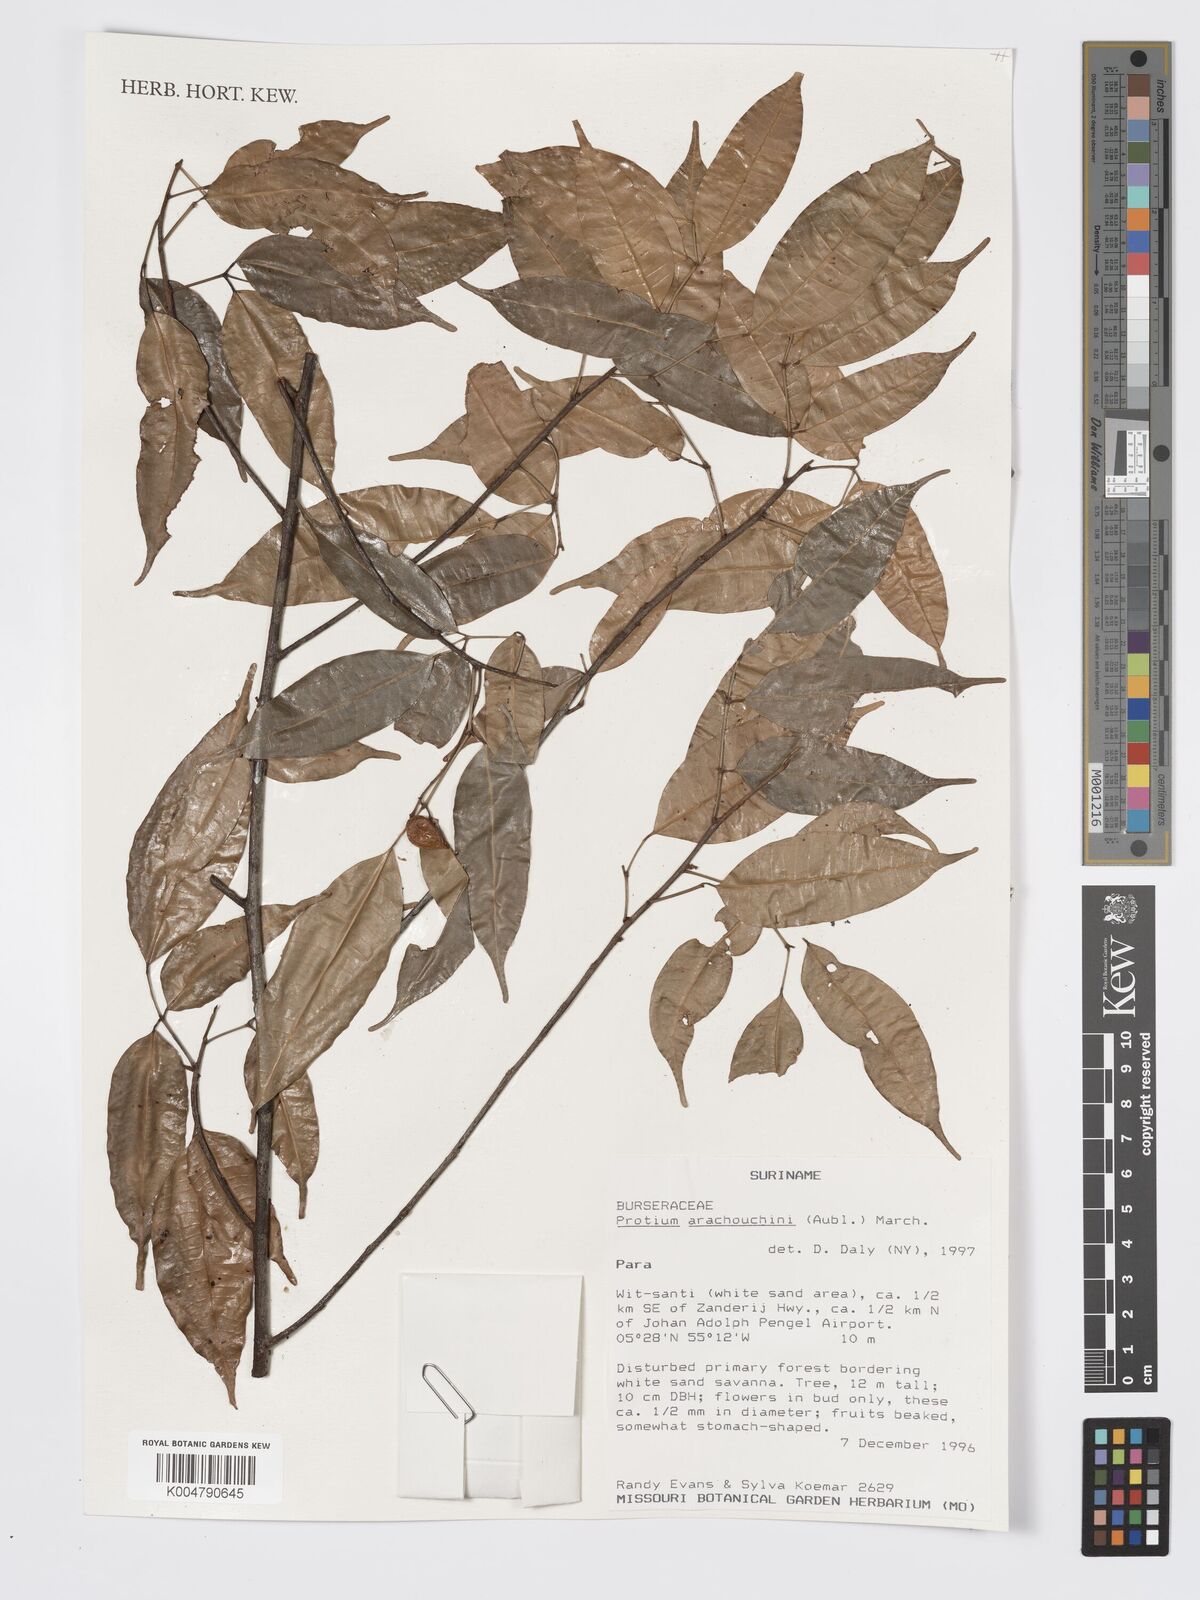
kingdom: Plantae
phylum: Tracheophyta
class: Magnoliopsida
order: Sapindales
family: Burseraceae
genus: Protium
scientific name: Protium aracouchini
